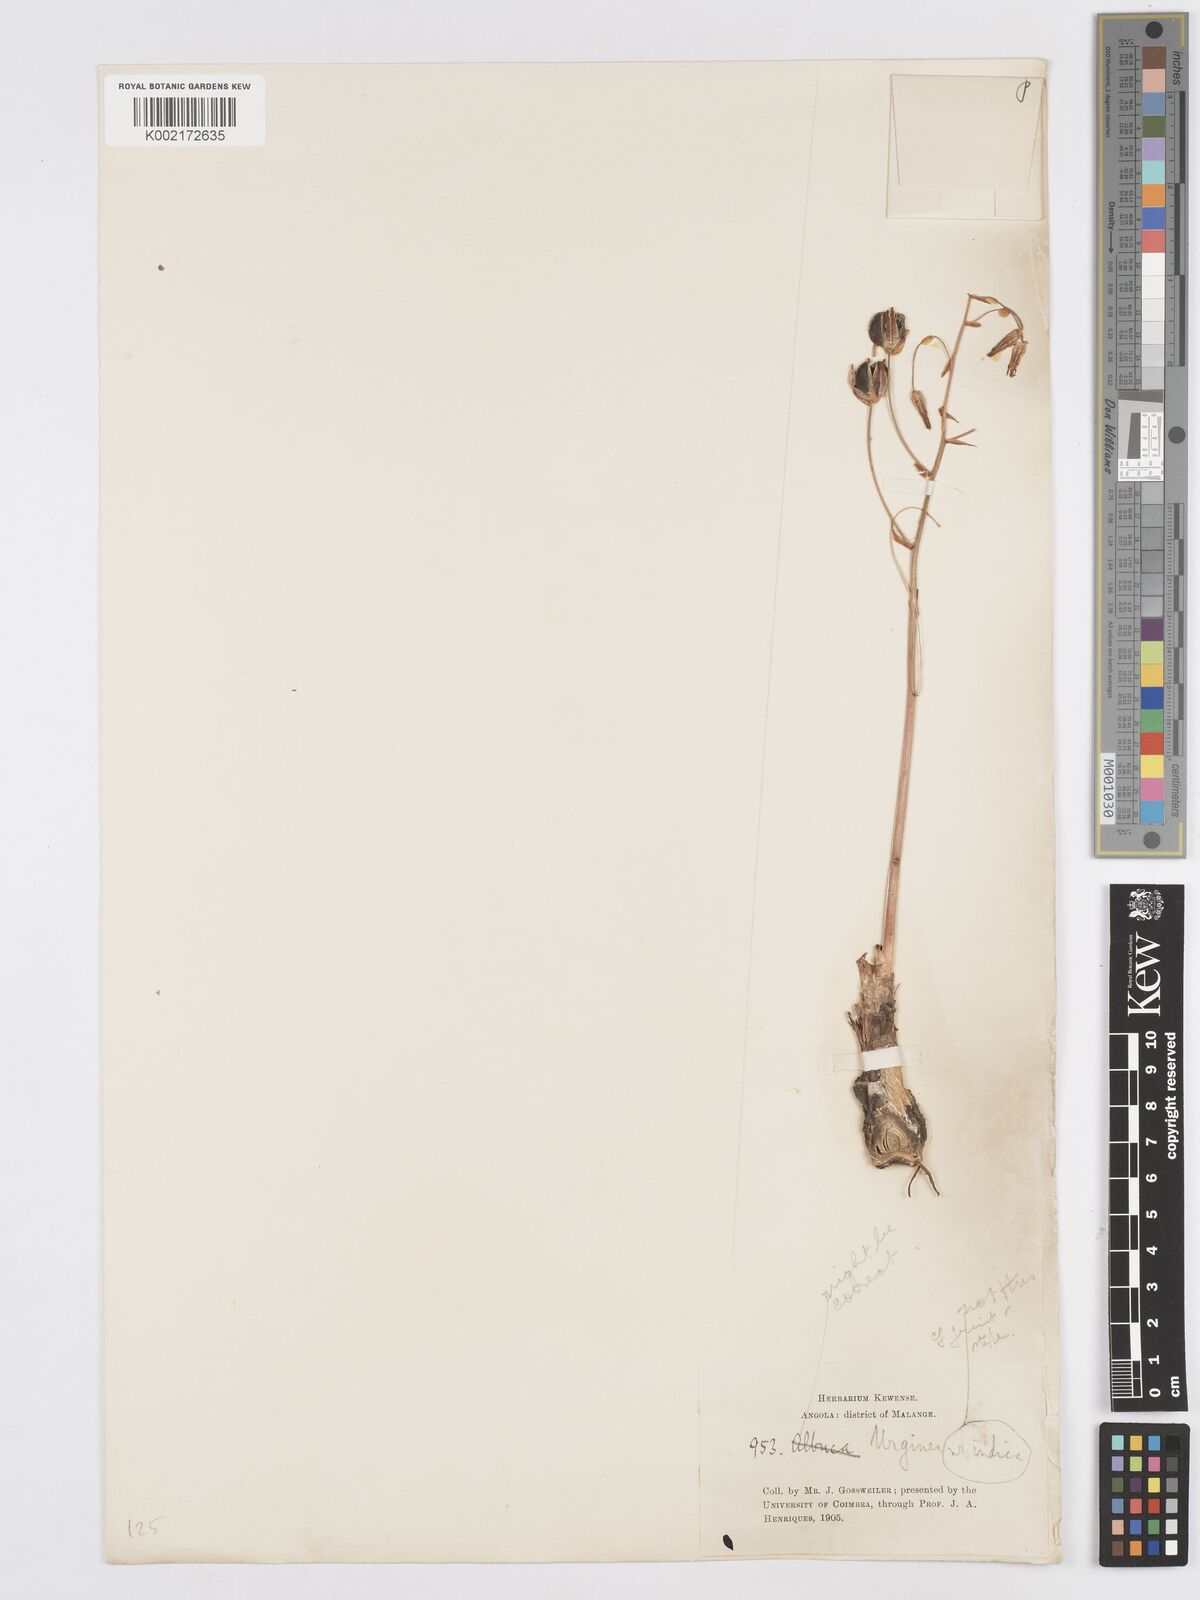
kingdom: Plantae
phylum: Tracheophyta
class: Liliopsida
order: Asparagales
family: Asparagaceae
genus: Albuca
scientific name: Albuca kirkii
